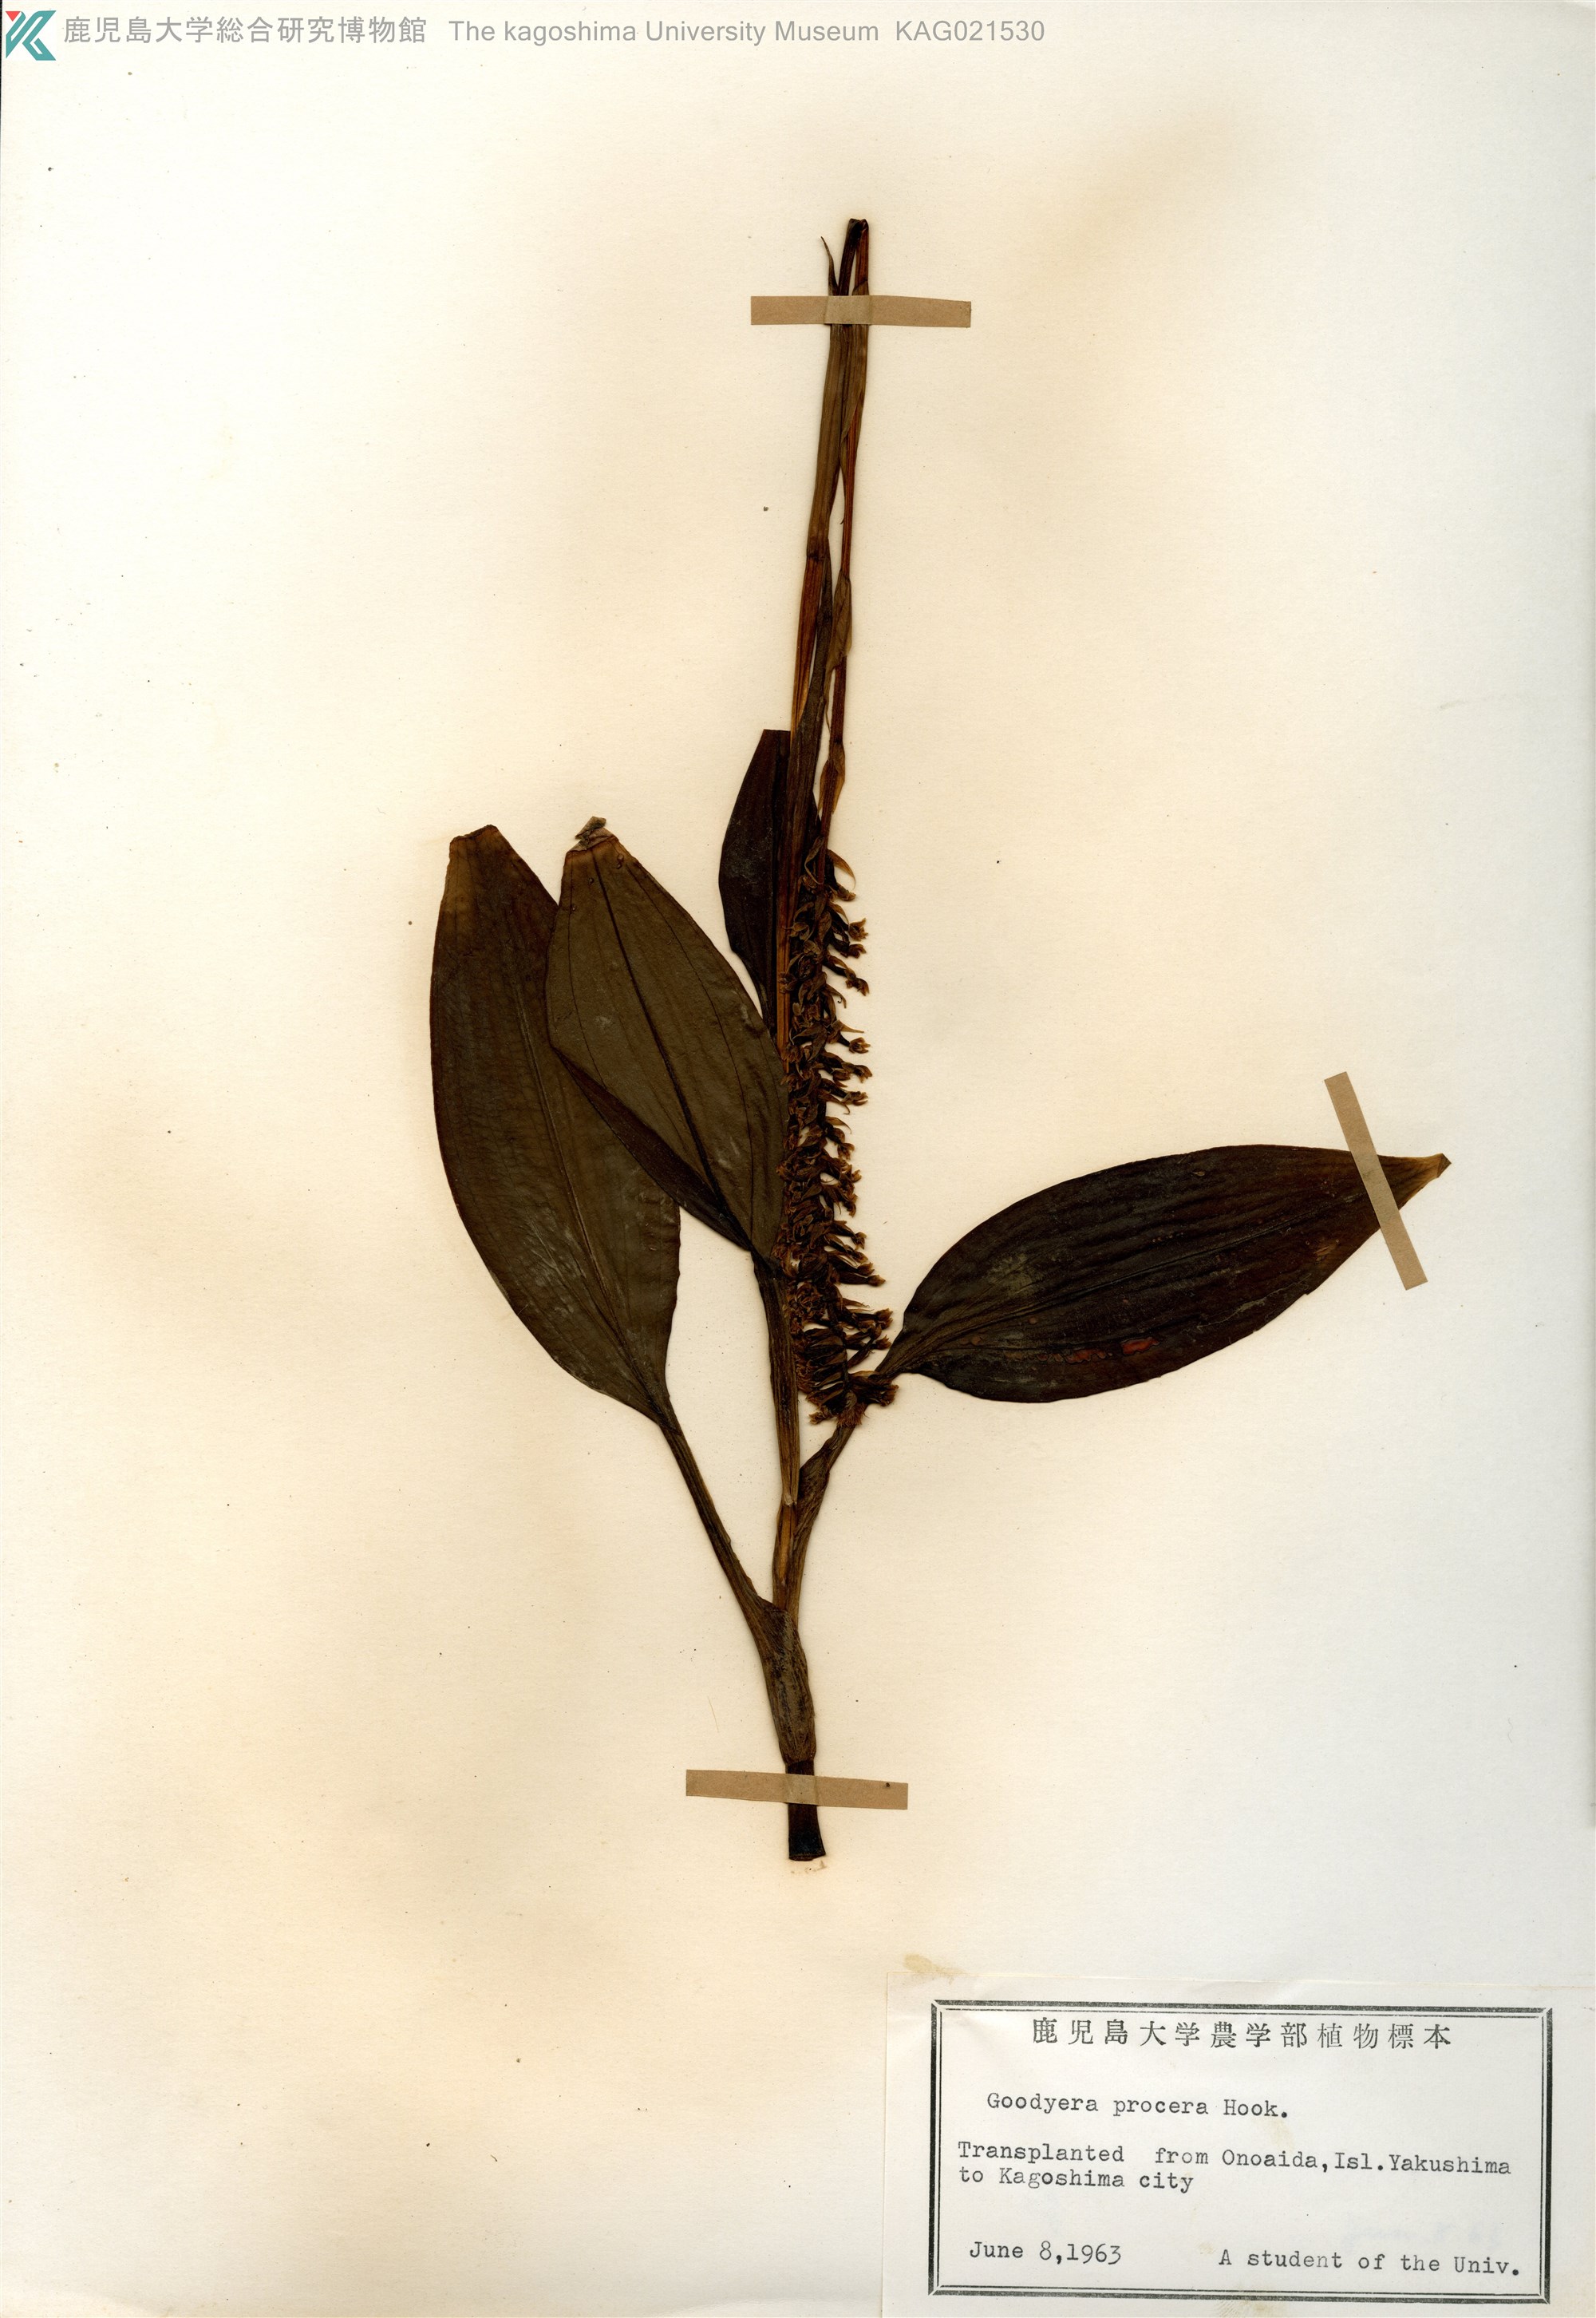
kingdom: Plantae
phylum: Tracheophyta
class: Liliopsida
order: Asparagales
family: Orchidaceae
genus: Goodyera
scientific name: Goodyera procera
